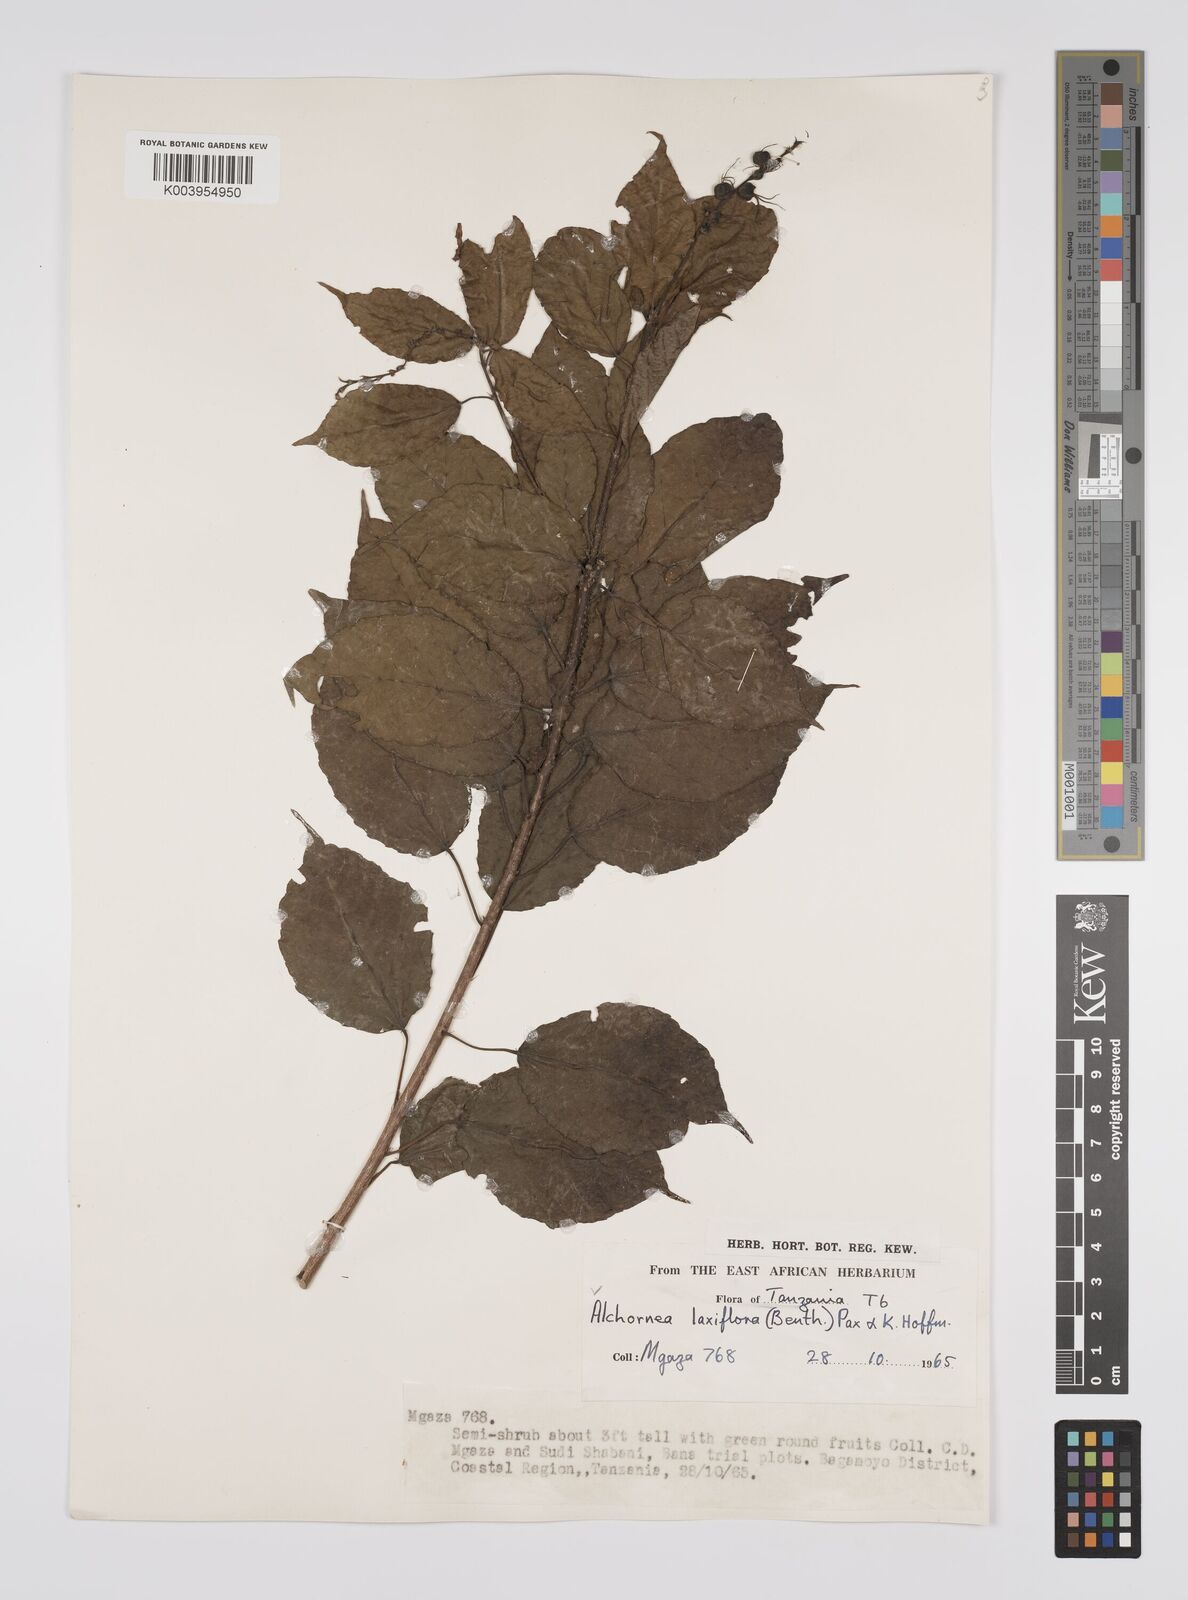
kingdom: Plantae
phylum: Tracheophyta
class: Magnoliopsida
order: Malpighiales
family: Euphorbiaceae
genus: Alchornea
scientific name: Alchornea laxiflora
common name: Lowveld bead-string
